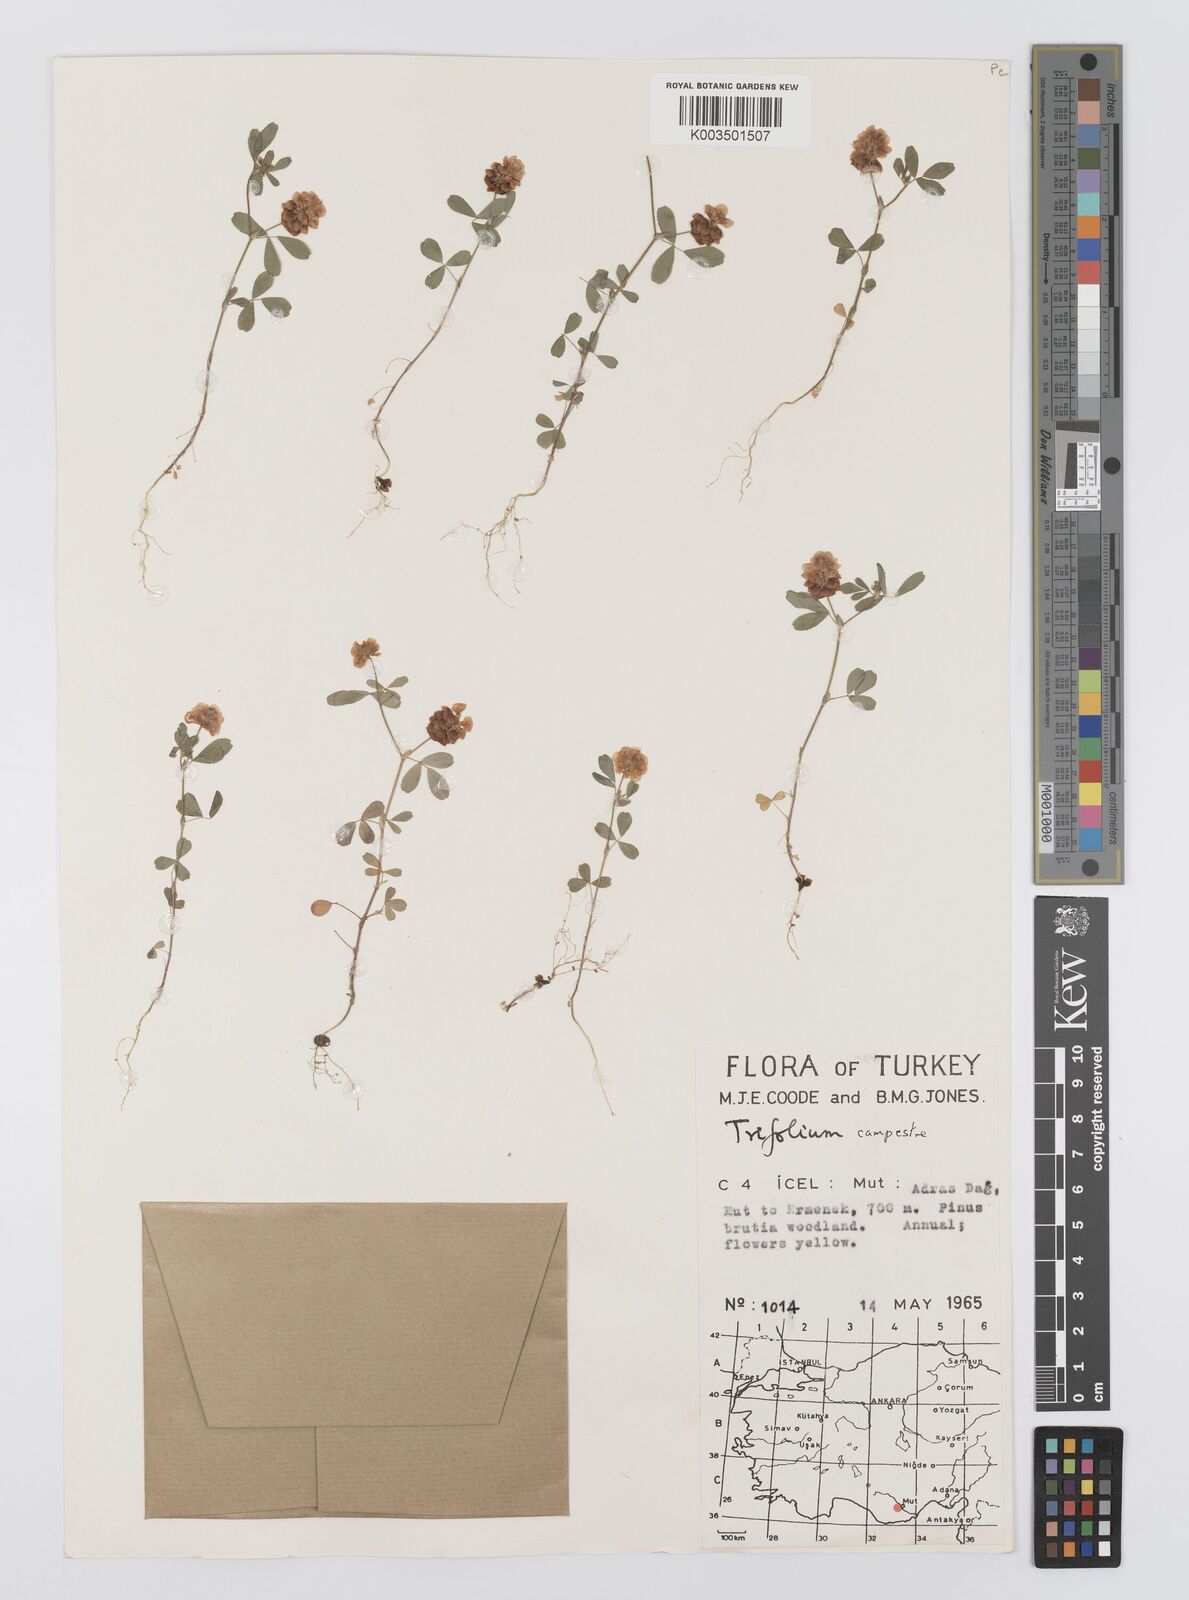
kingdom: Plantae
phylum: Tracheophyta
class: Magnoliopsida
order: Fabales
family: Fabaceae
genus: Trifolium
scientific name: Trifolium campestre
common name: Field clover
